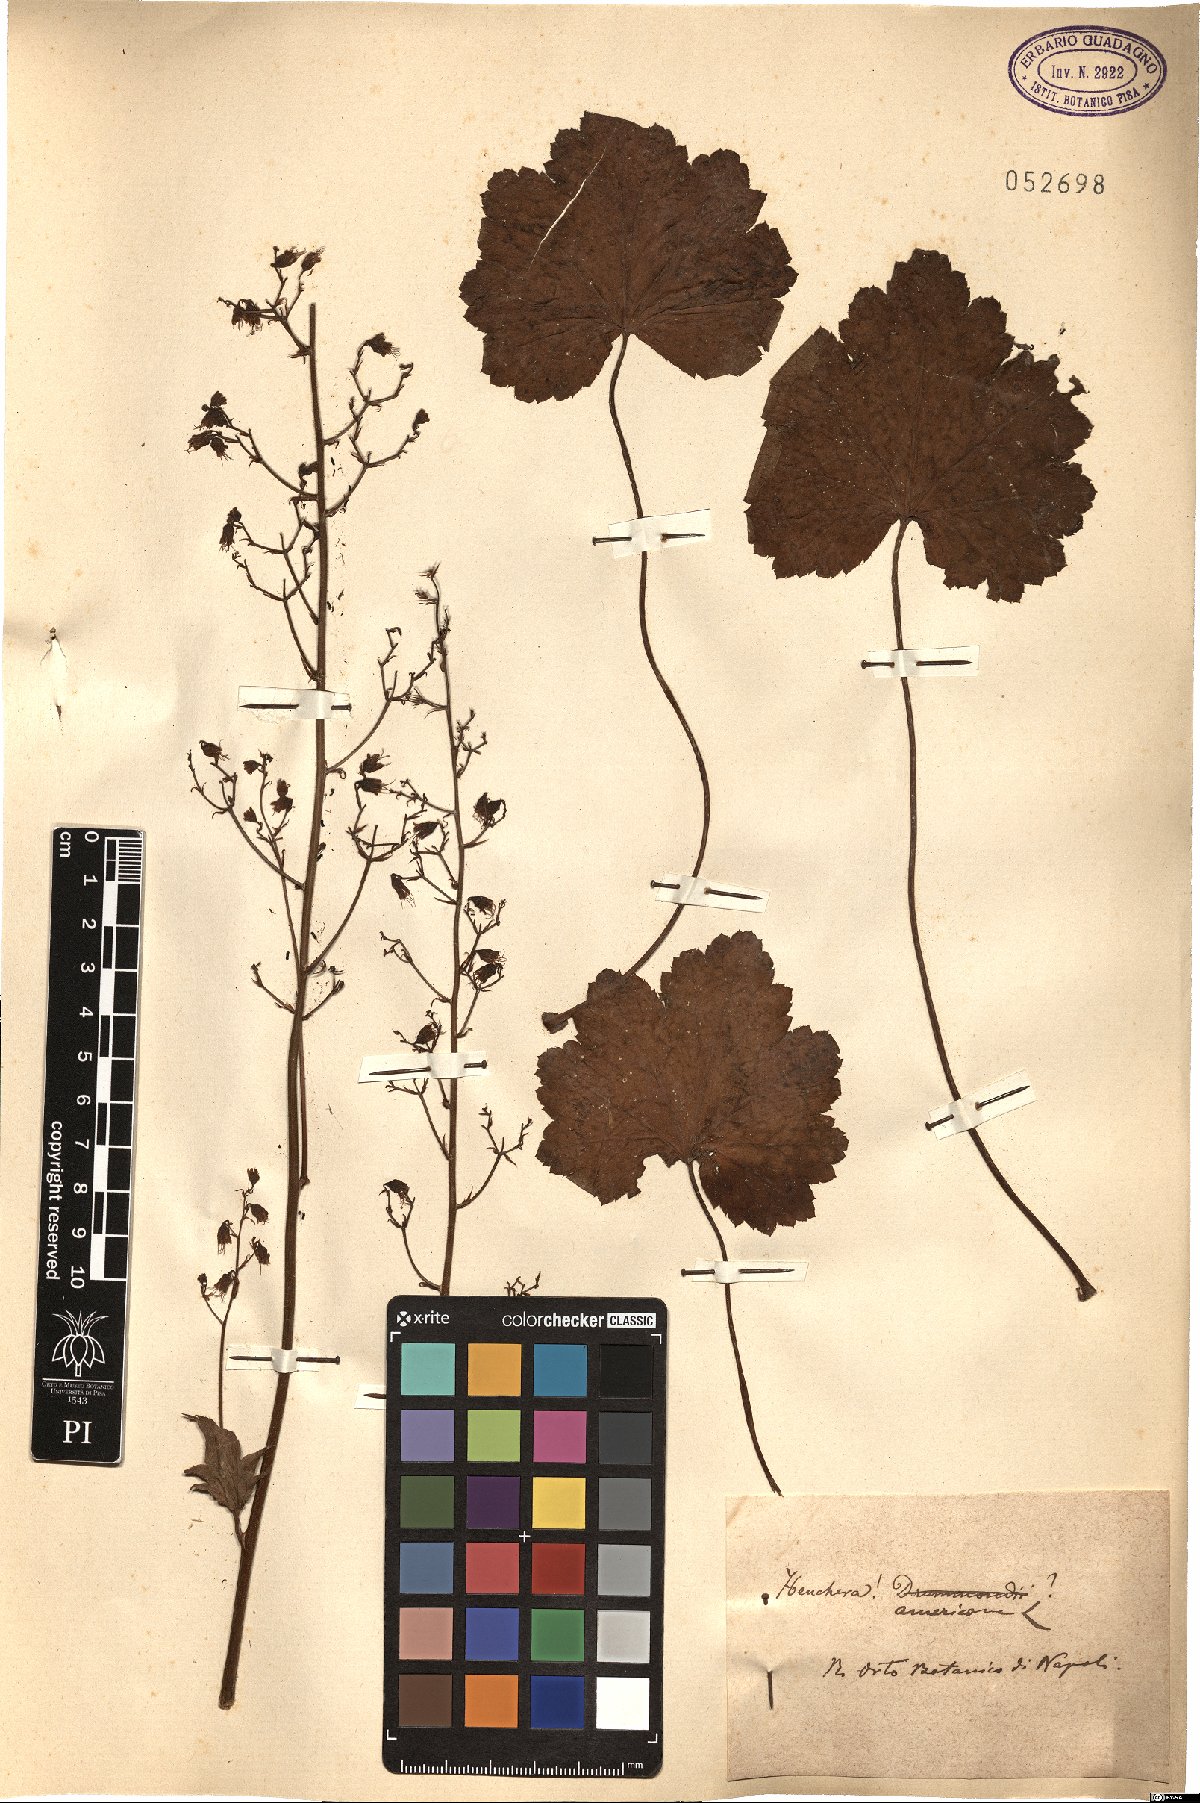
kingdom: Plantae
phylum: Tracheophyta
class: Magnoliopsida
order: Saxifragales
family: Saxifragaceae
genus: Heuchera
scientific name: Heuchera americana
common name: Alumroot
